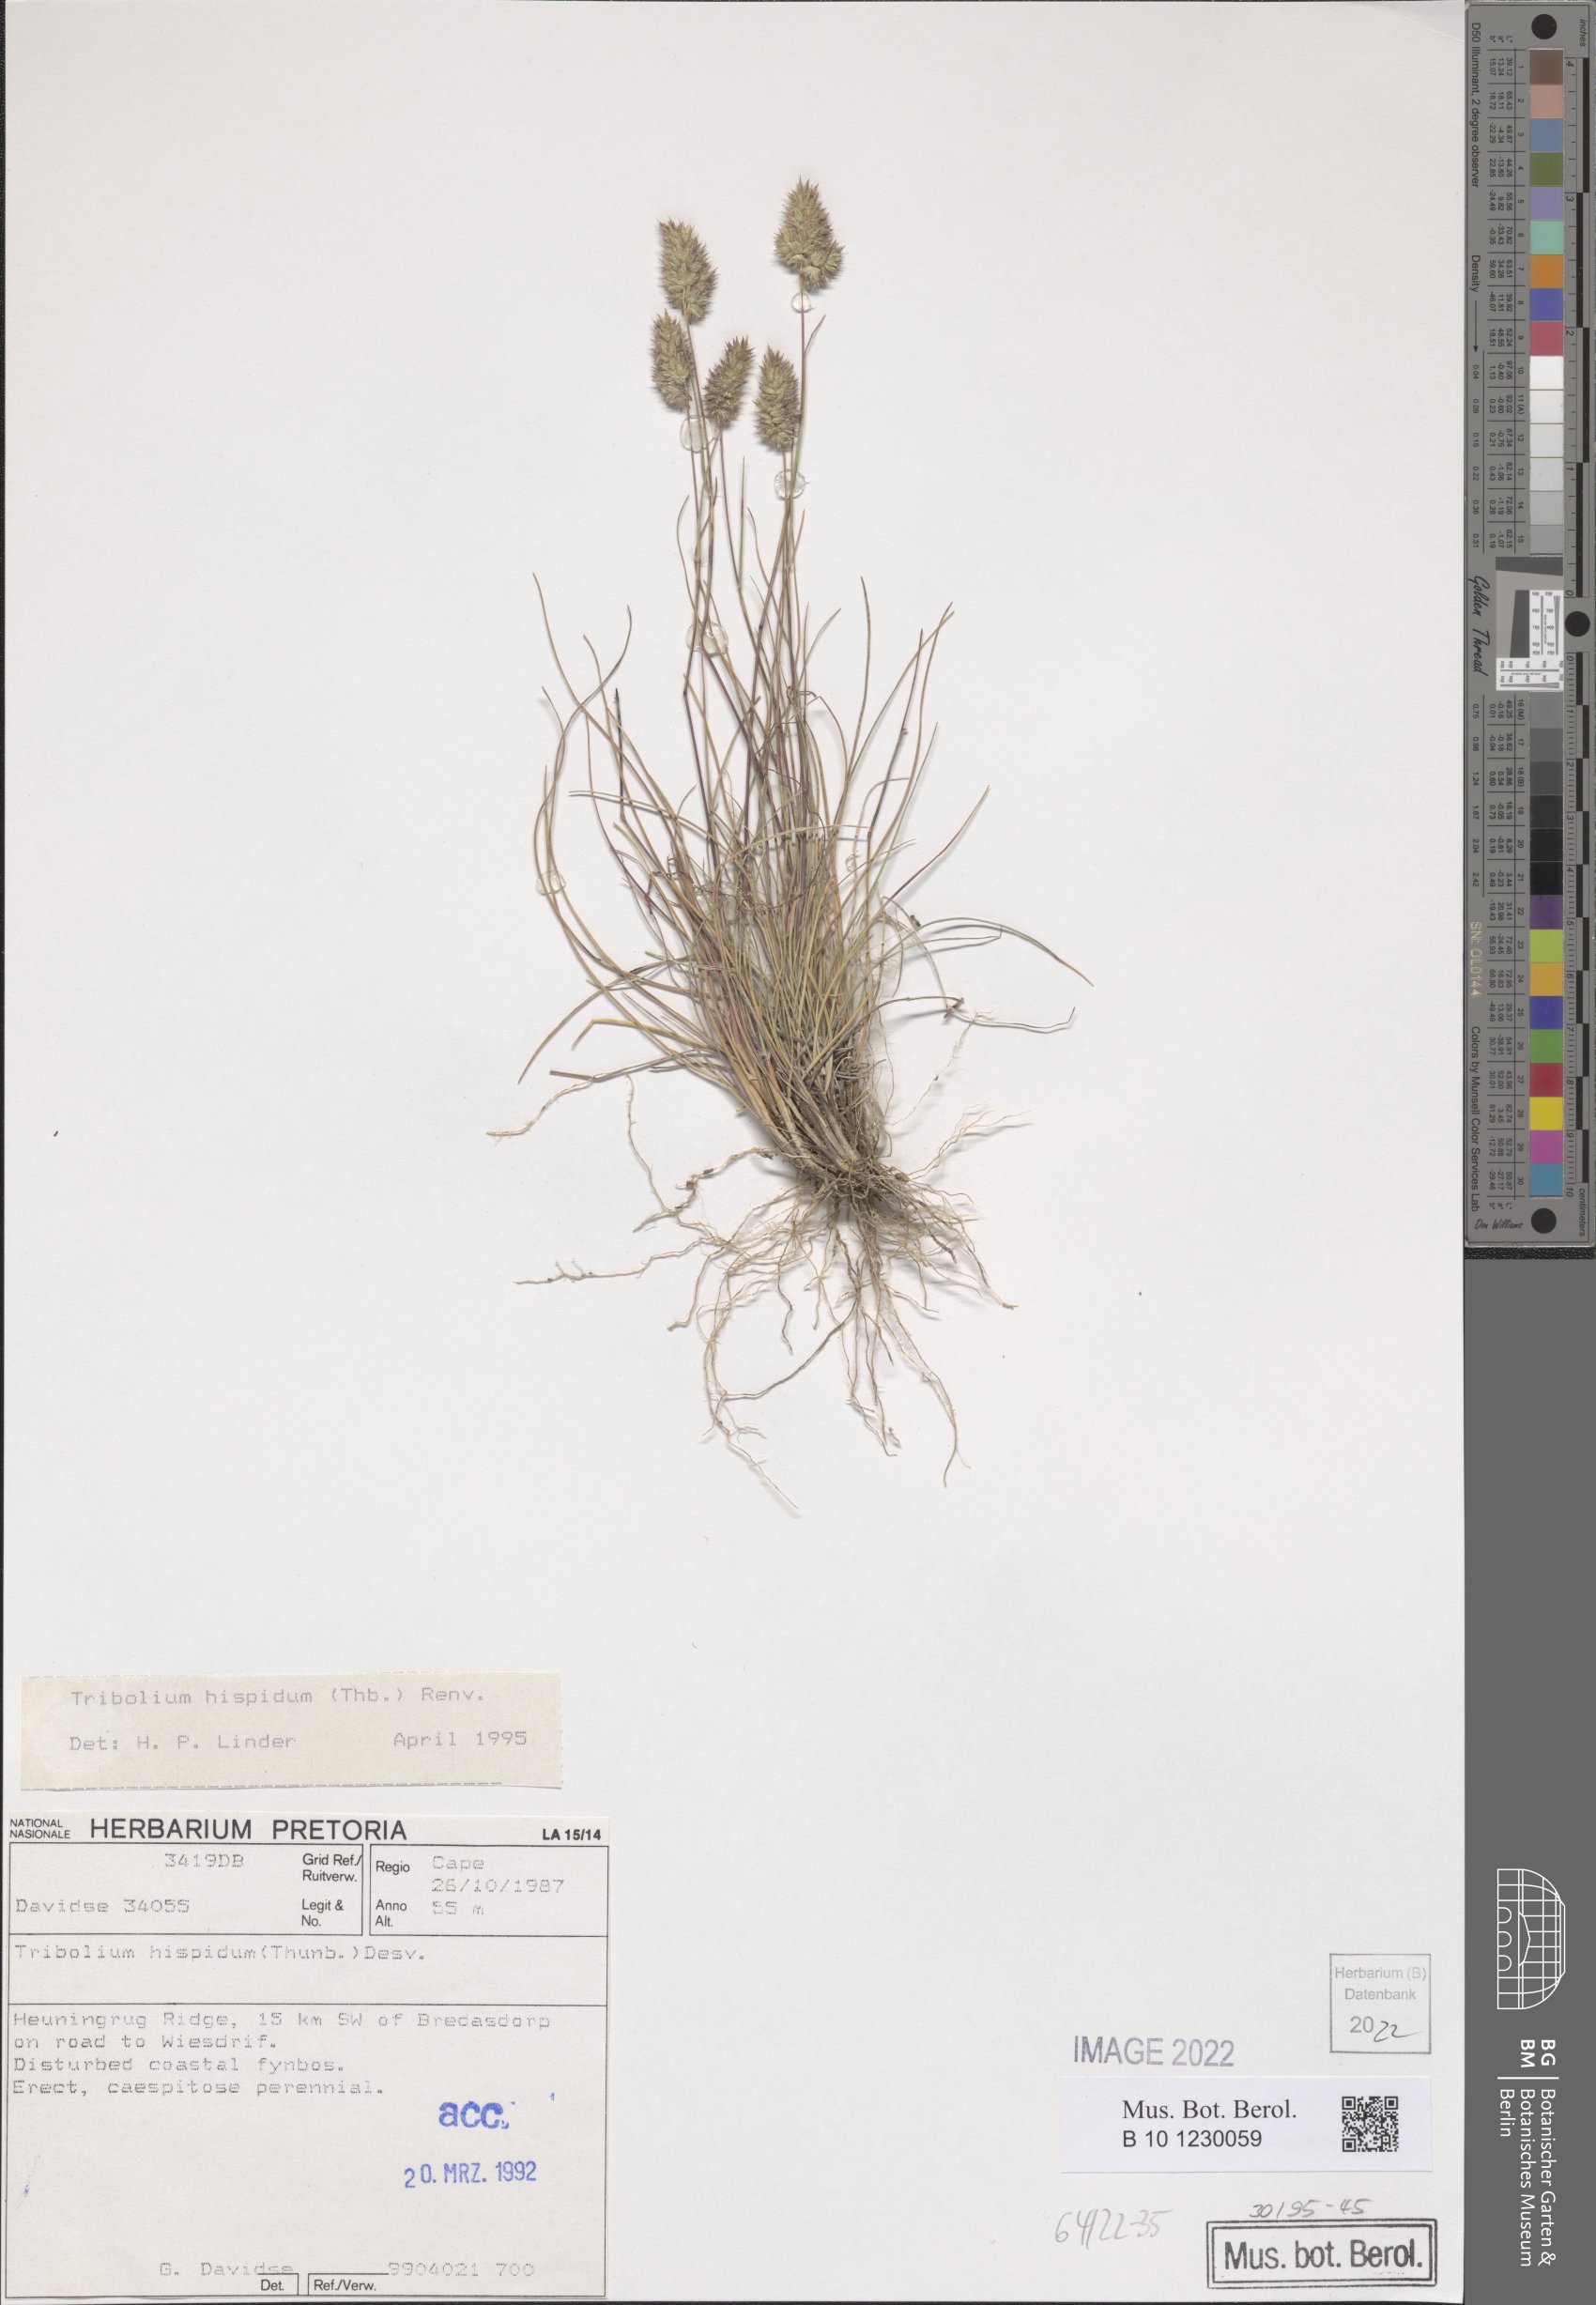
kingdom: Plantae
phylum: Tracheophyta
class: Liliopsida
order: Poales
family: Poaceae
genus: Tribolium
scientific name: Tribolium hispidum
